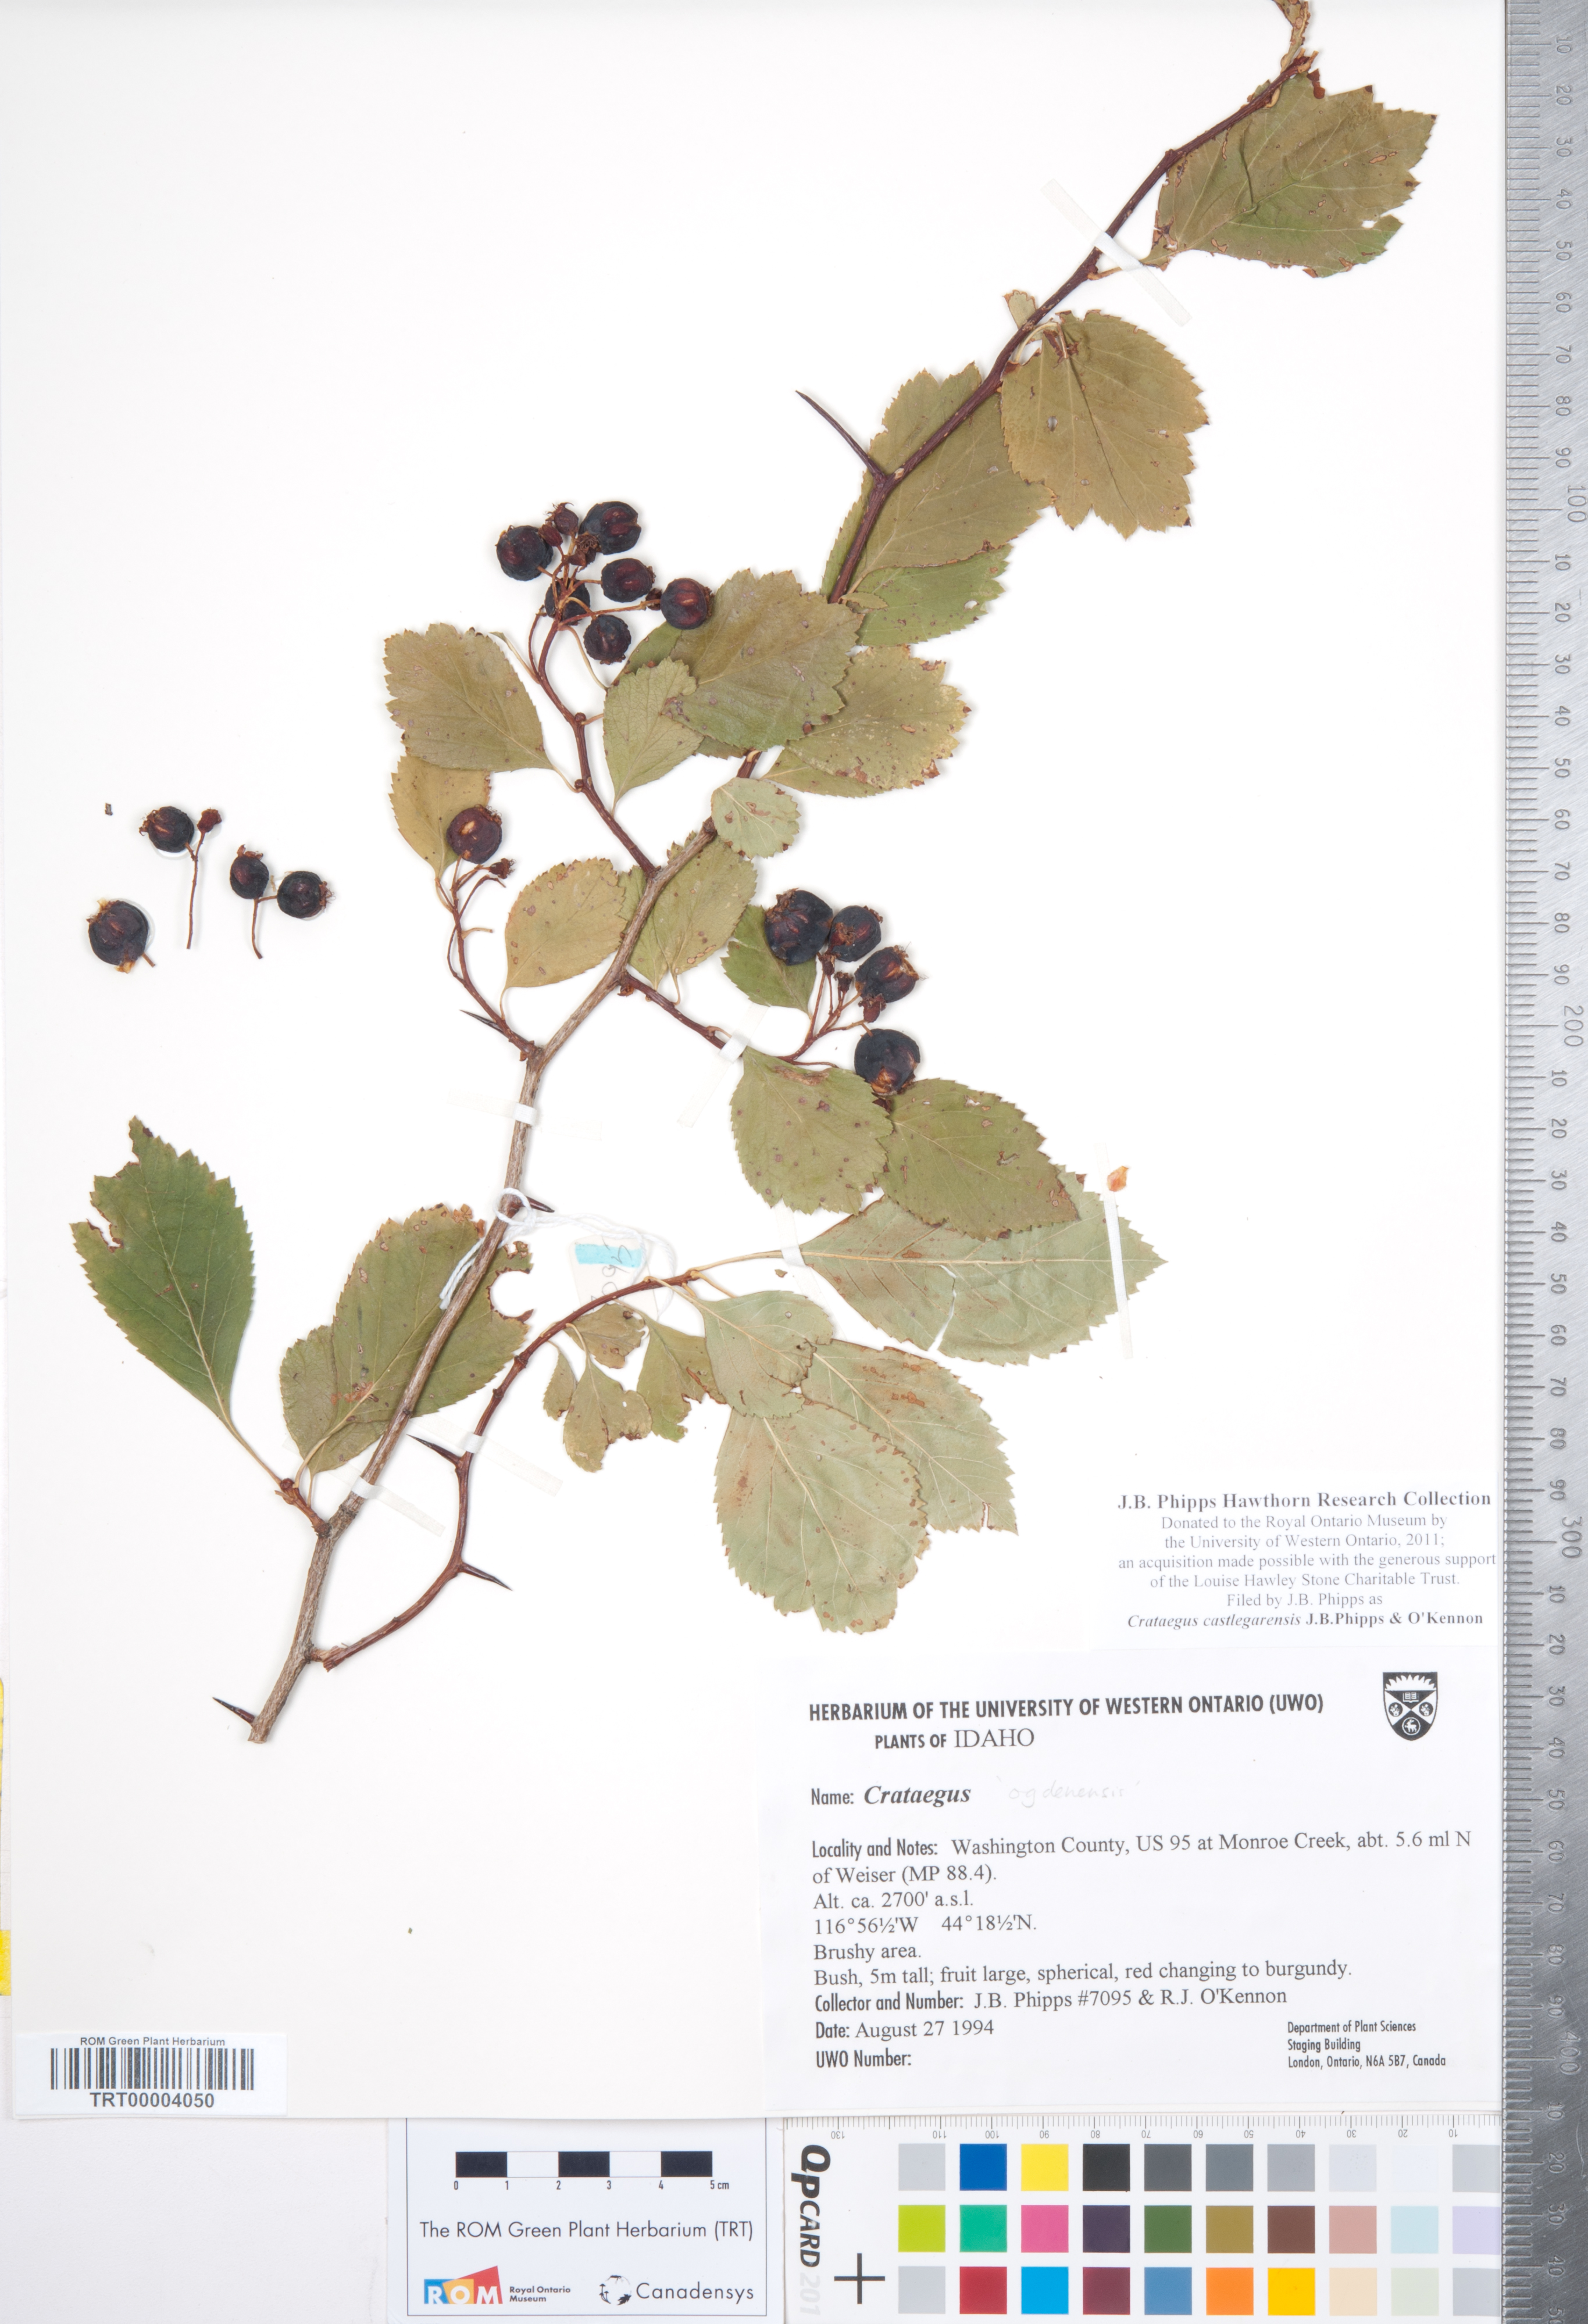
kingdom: Plantae
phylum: Tracheophyta
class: Magnoliopsida
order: Rosales
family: Rosaceae
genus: Crataegus
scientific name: Crataegus castlegarensis
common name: Castlegar hawthorn
